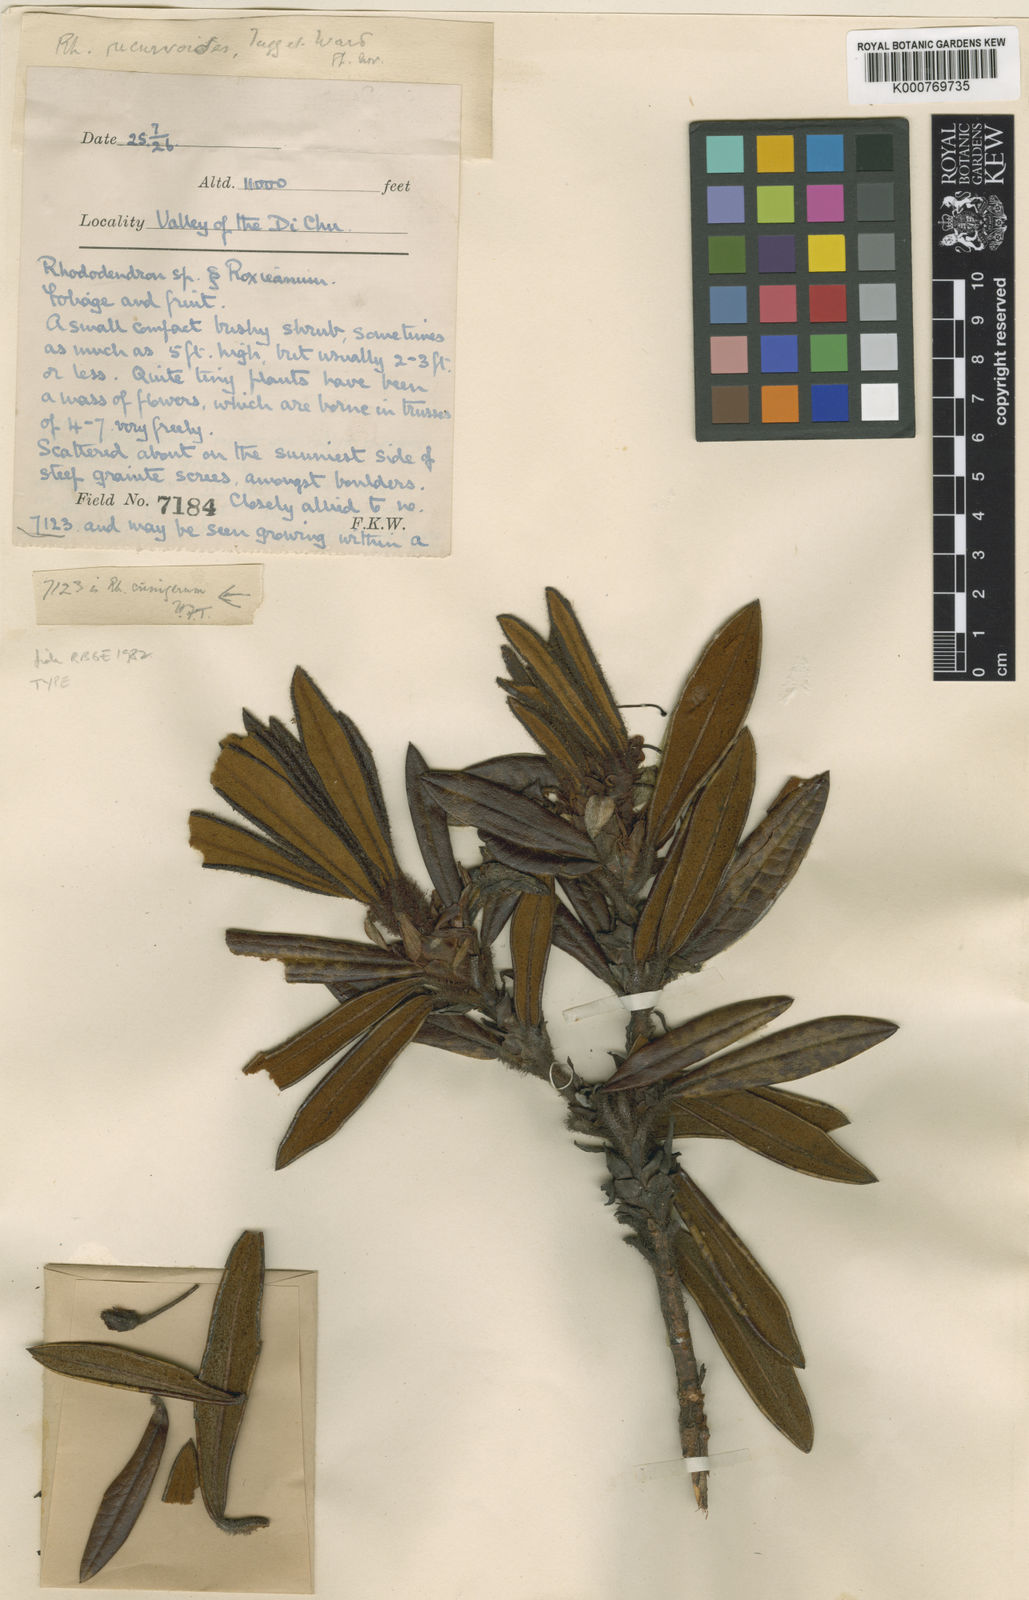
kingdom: Plantae
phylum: Tracheophyta
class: Magnoliopsida
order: Ericales
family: Ericaceae
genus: Rhododendron
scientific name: Rhododendron recurvoides
